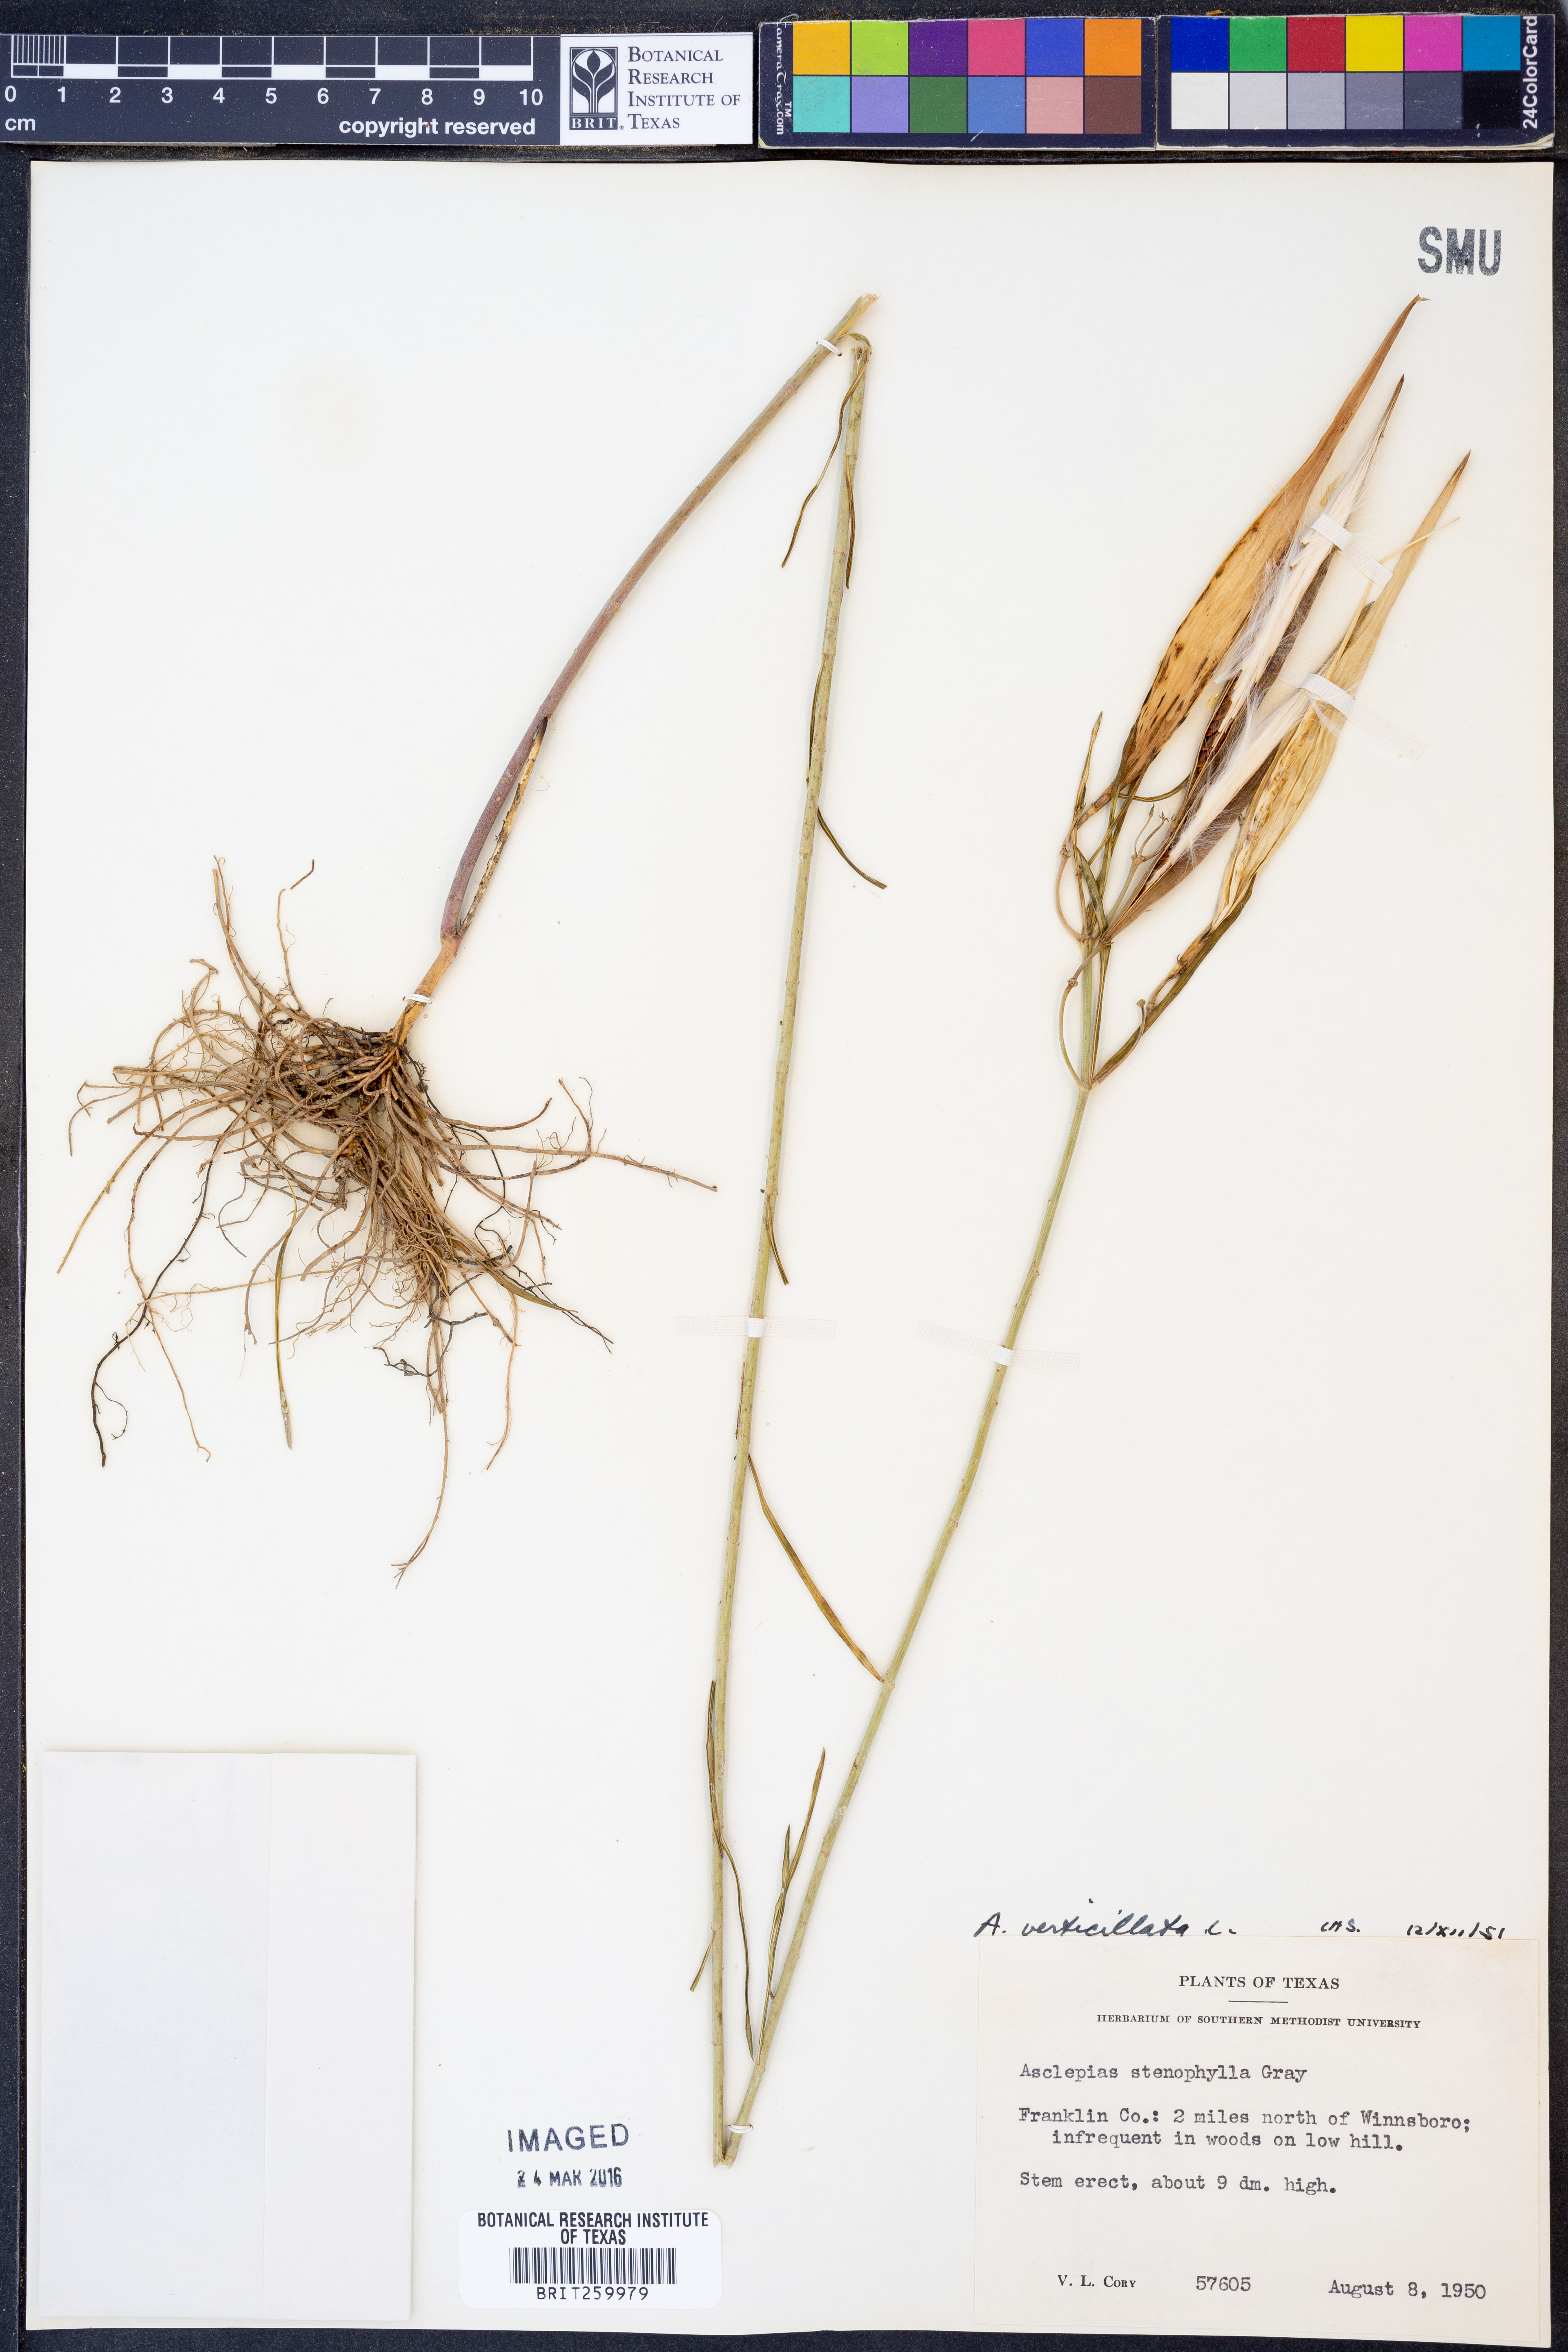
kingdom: Plantae
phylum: Tracheophyta
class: Magnoliopsida
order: Gentianales
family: Apocynaceae
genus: Asclepias
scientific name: Asclepias verticillata
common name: Eastern whorled milkweed
